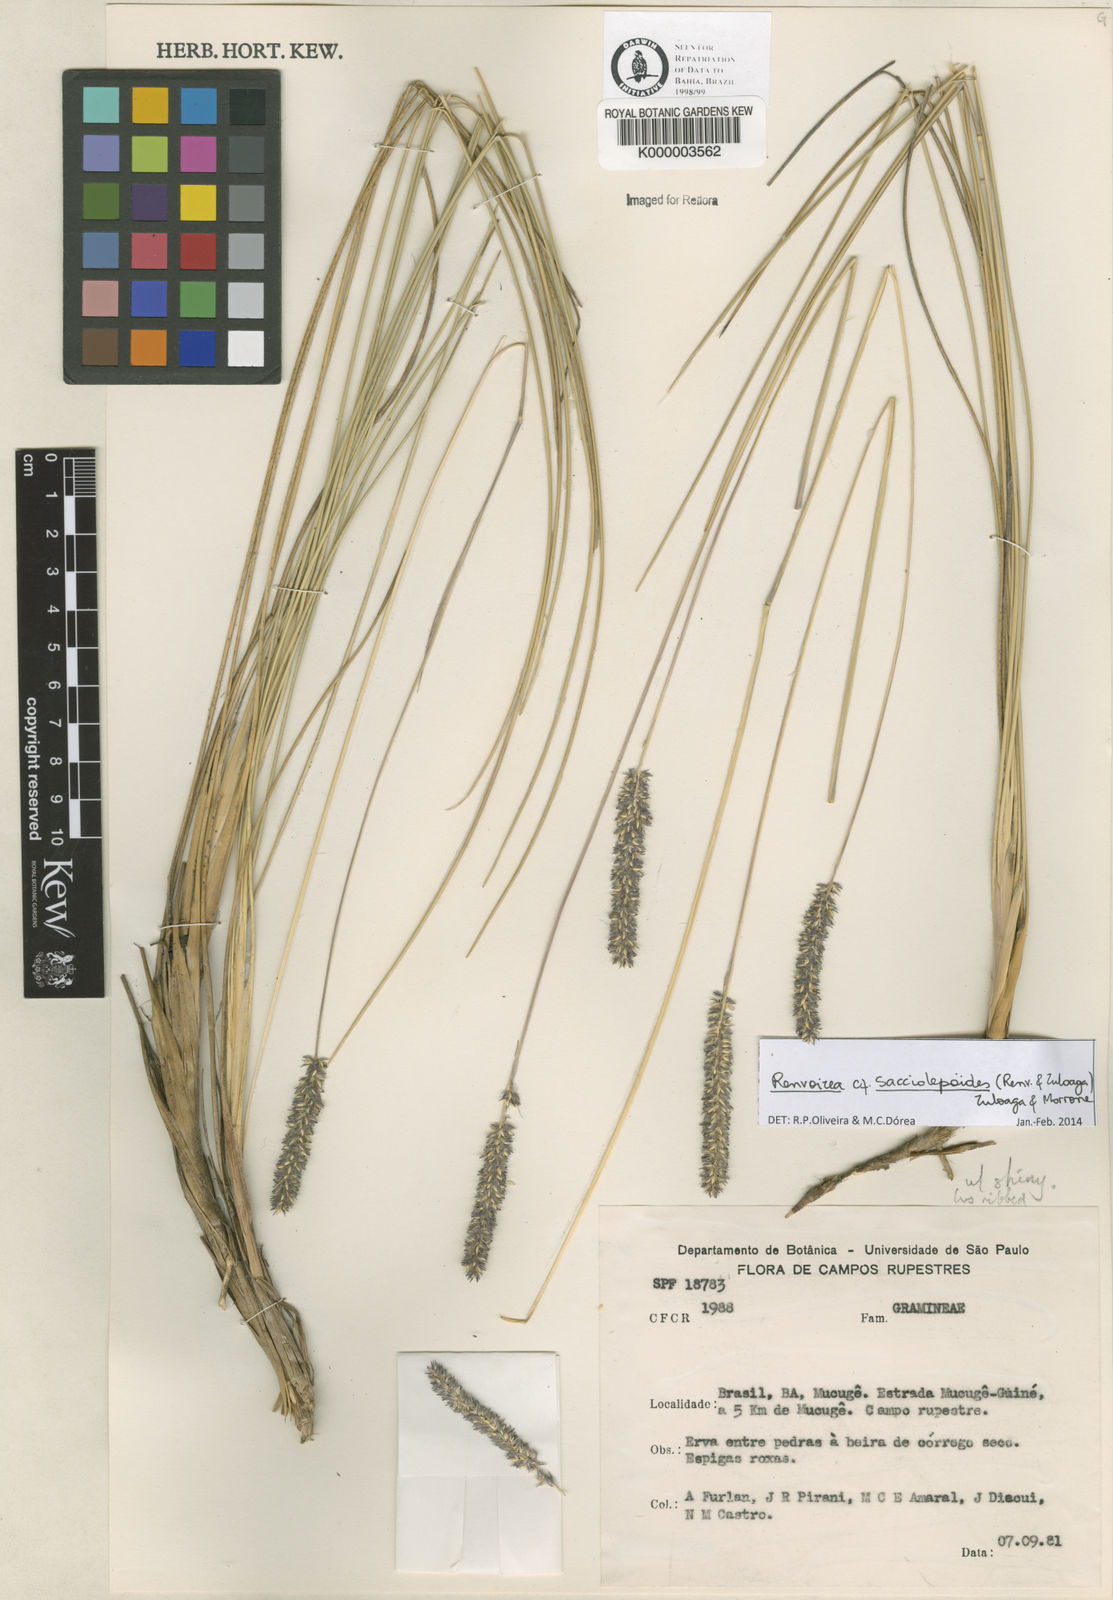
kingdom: Plantae
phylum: Tracheophyta
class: Liliopsida
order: Poales
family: Poaceae
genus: Renvoizea
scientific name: Renvoizea lagostachya
